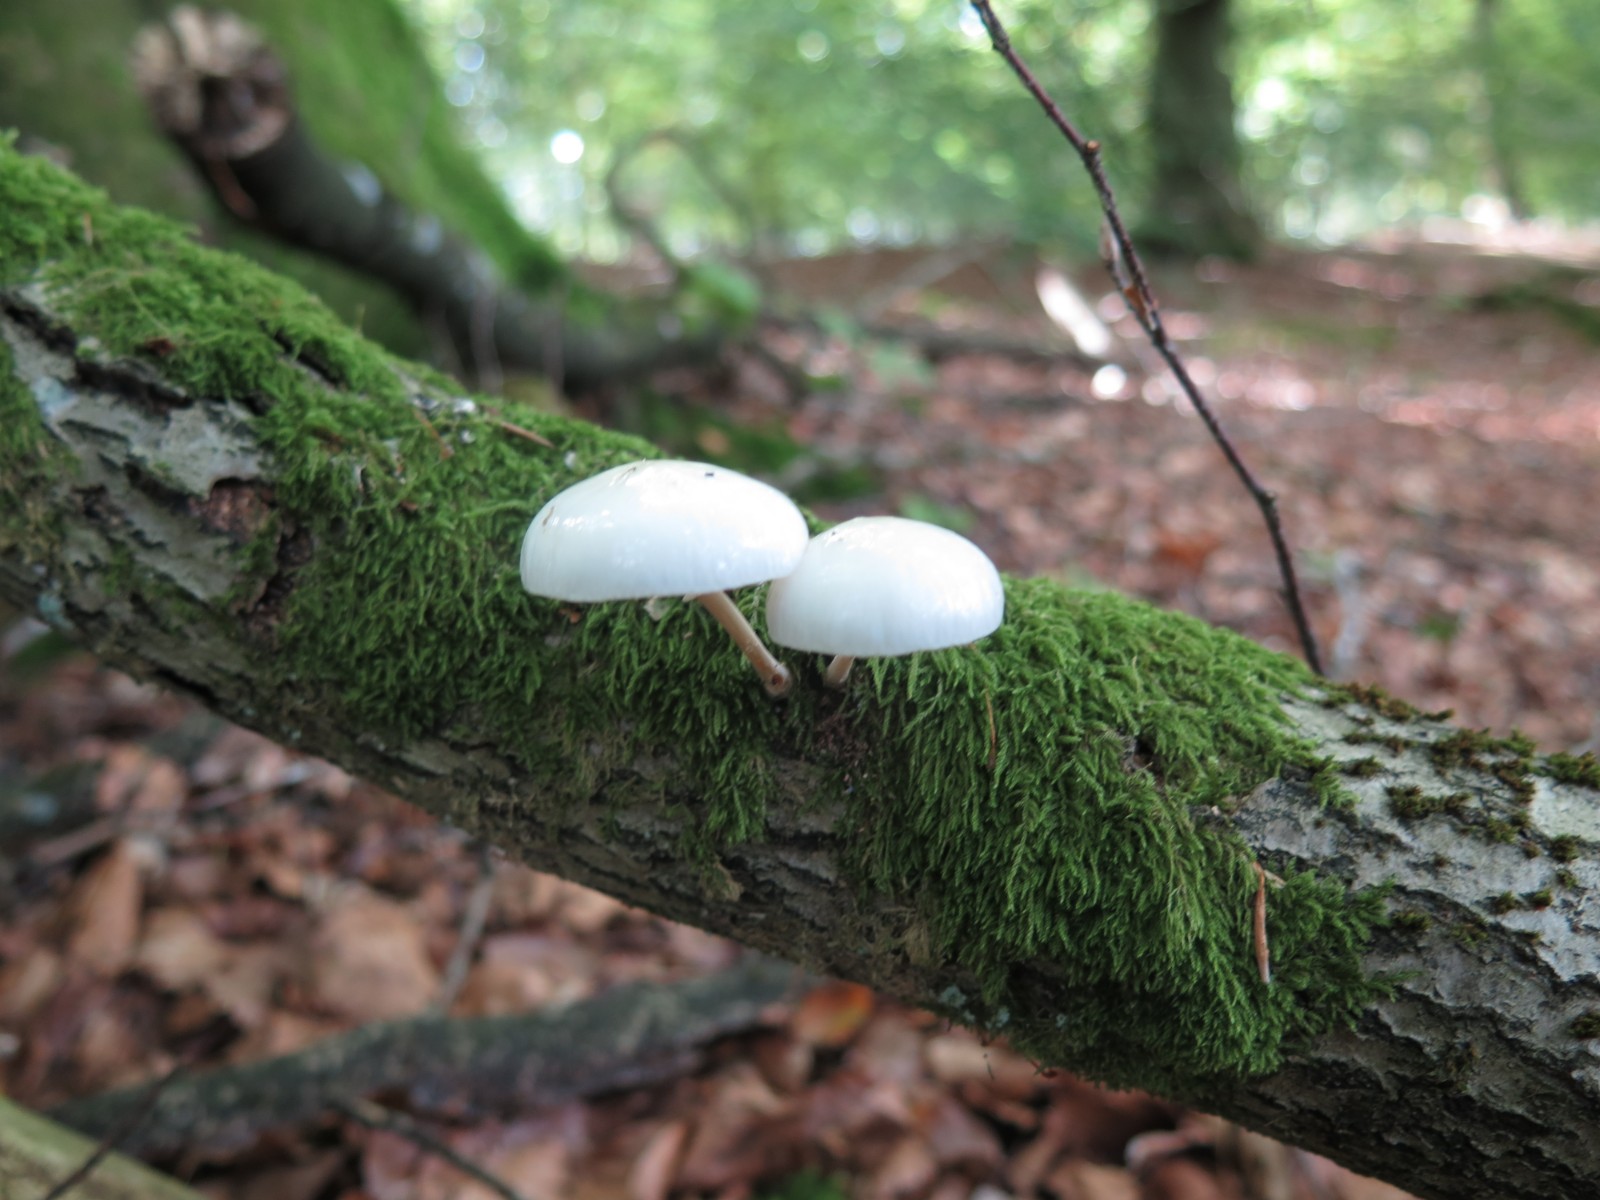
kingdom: Fungi
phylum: Basidiomycota
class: Agaricomycetes
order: Agaricales
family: Physalacriaceae
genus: Mucidula
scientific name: Mucidula mucida
